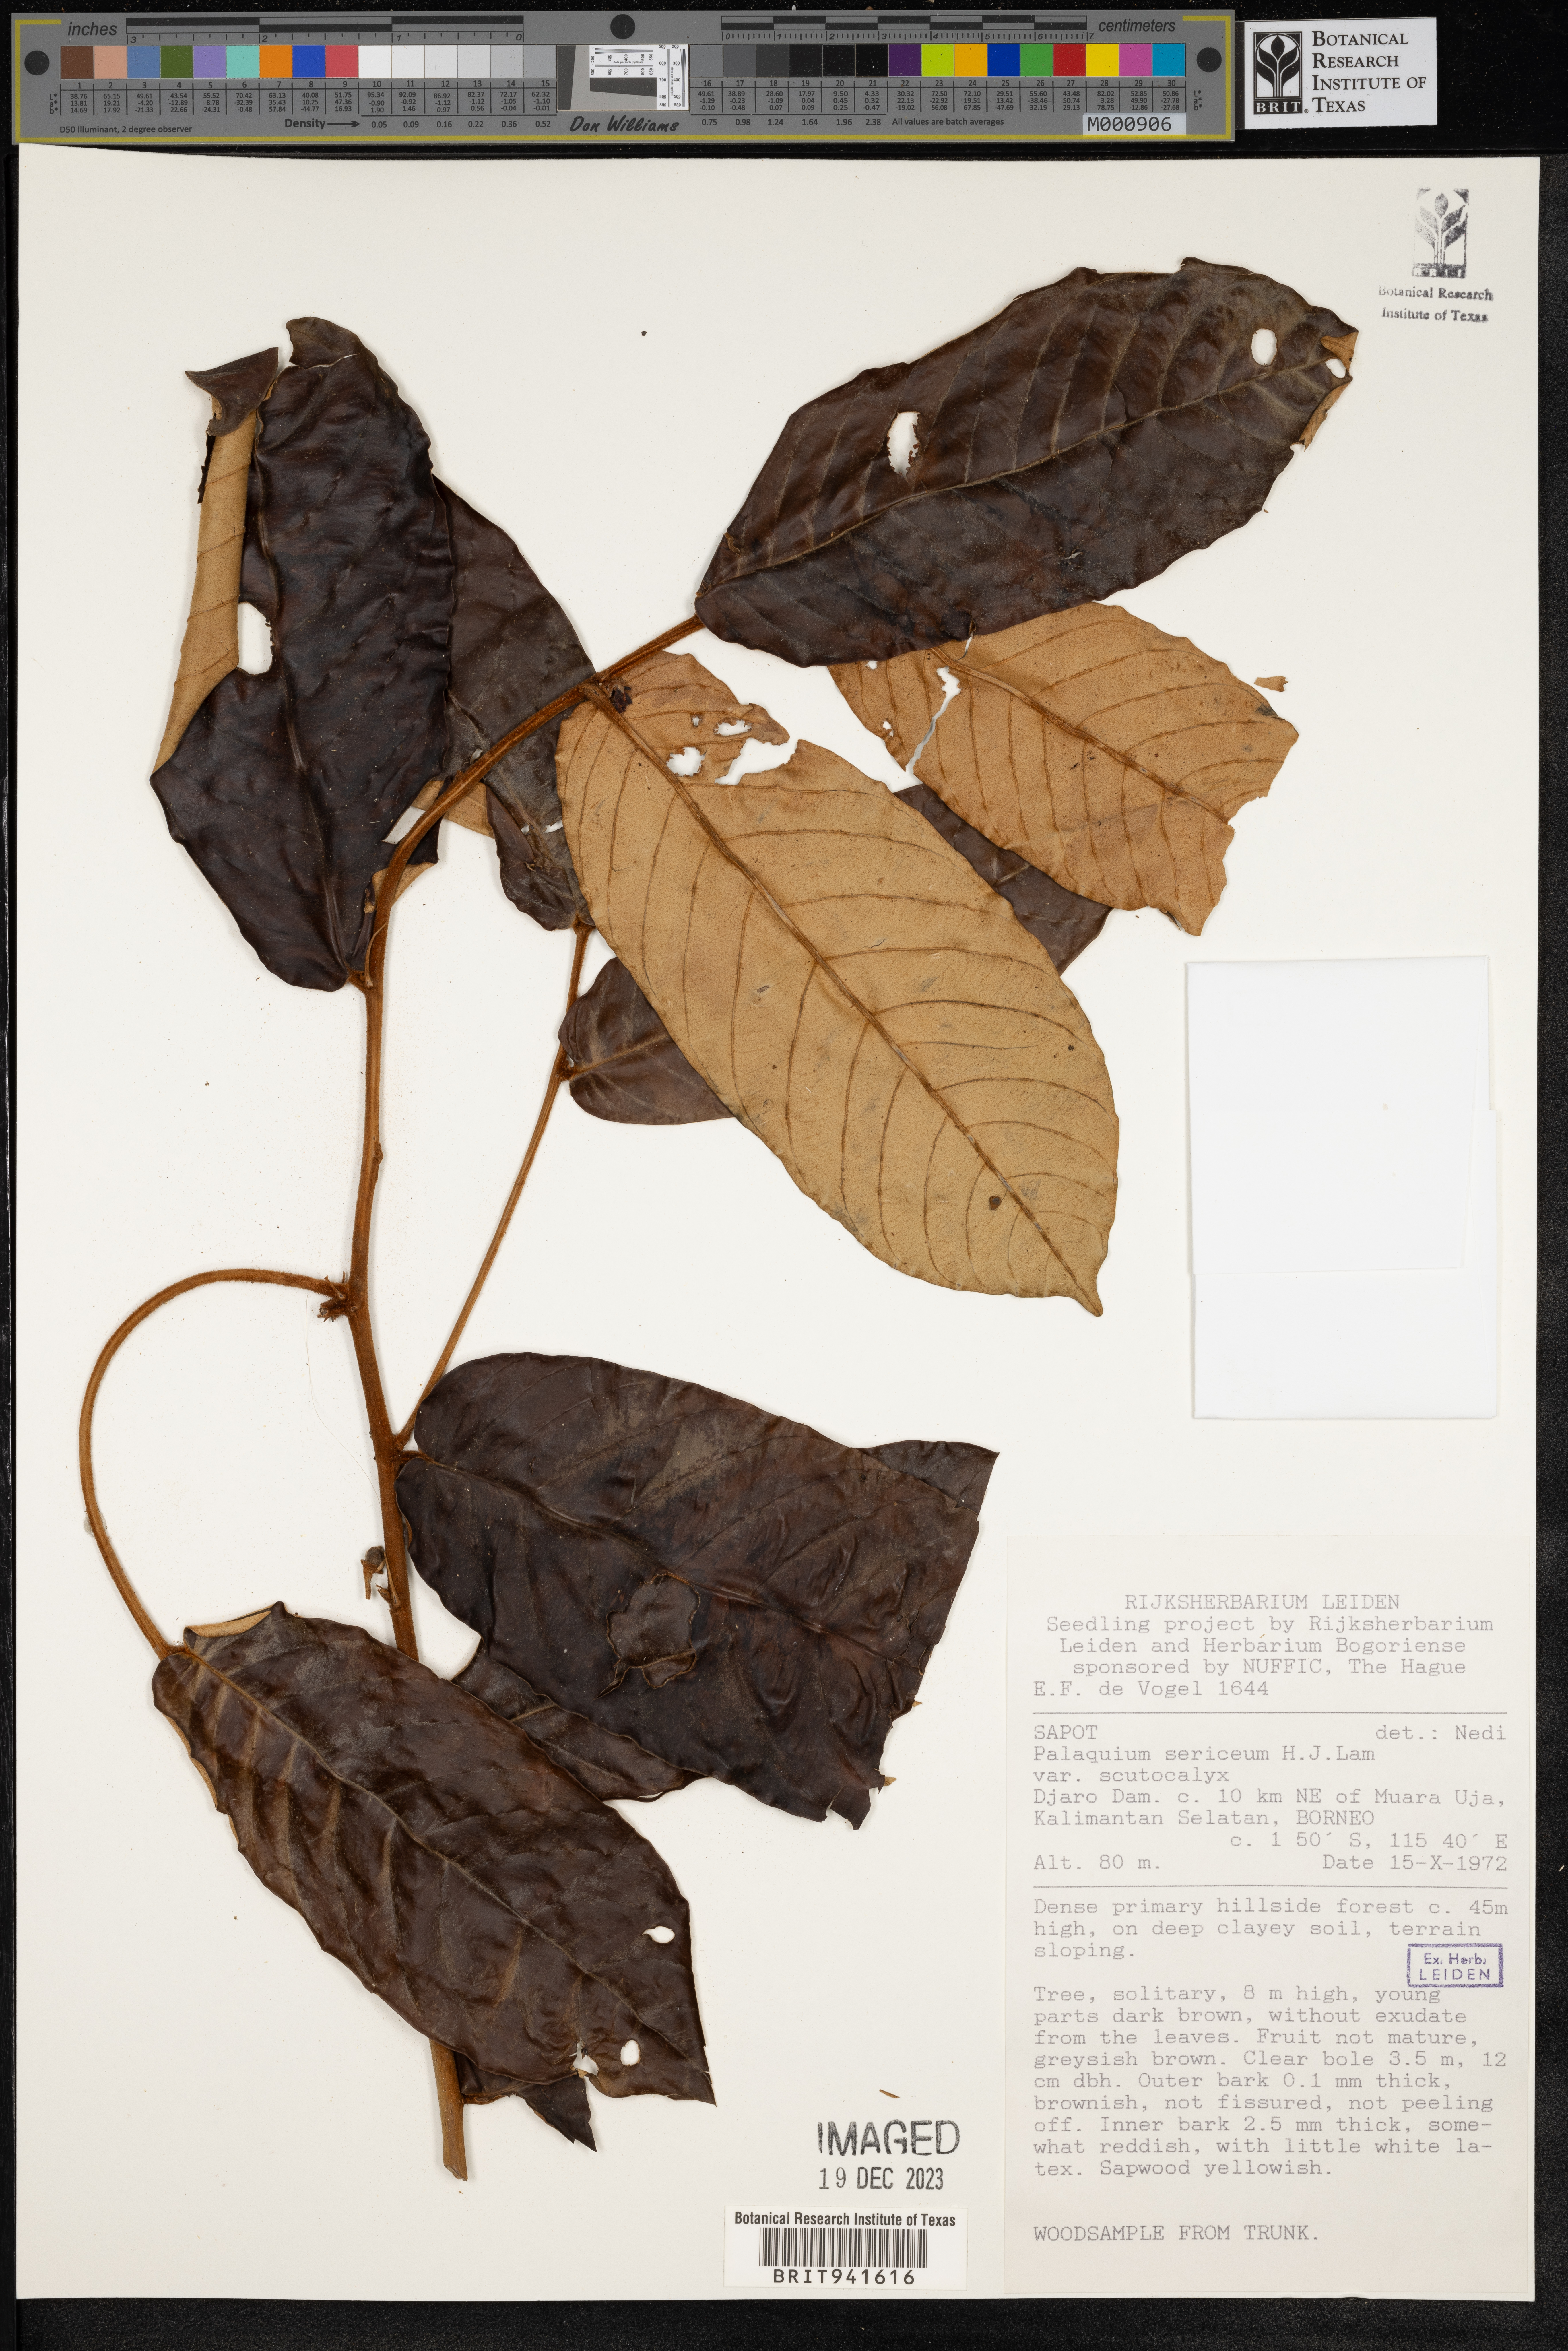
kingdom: Plantae
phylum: Tracheophyta
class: Magnoliopsida
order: Ericales
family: Sapotaceae
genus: Palaquium
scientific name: Palaquium
